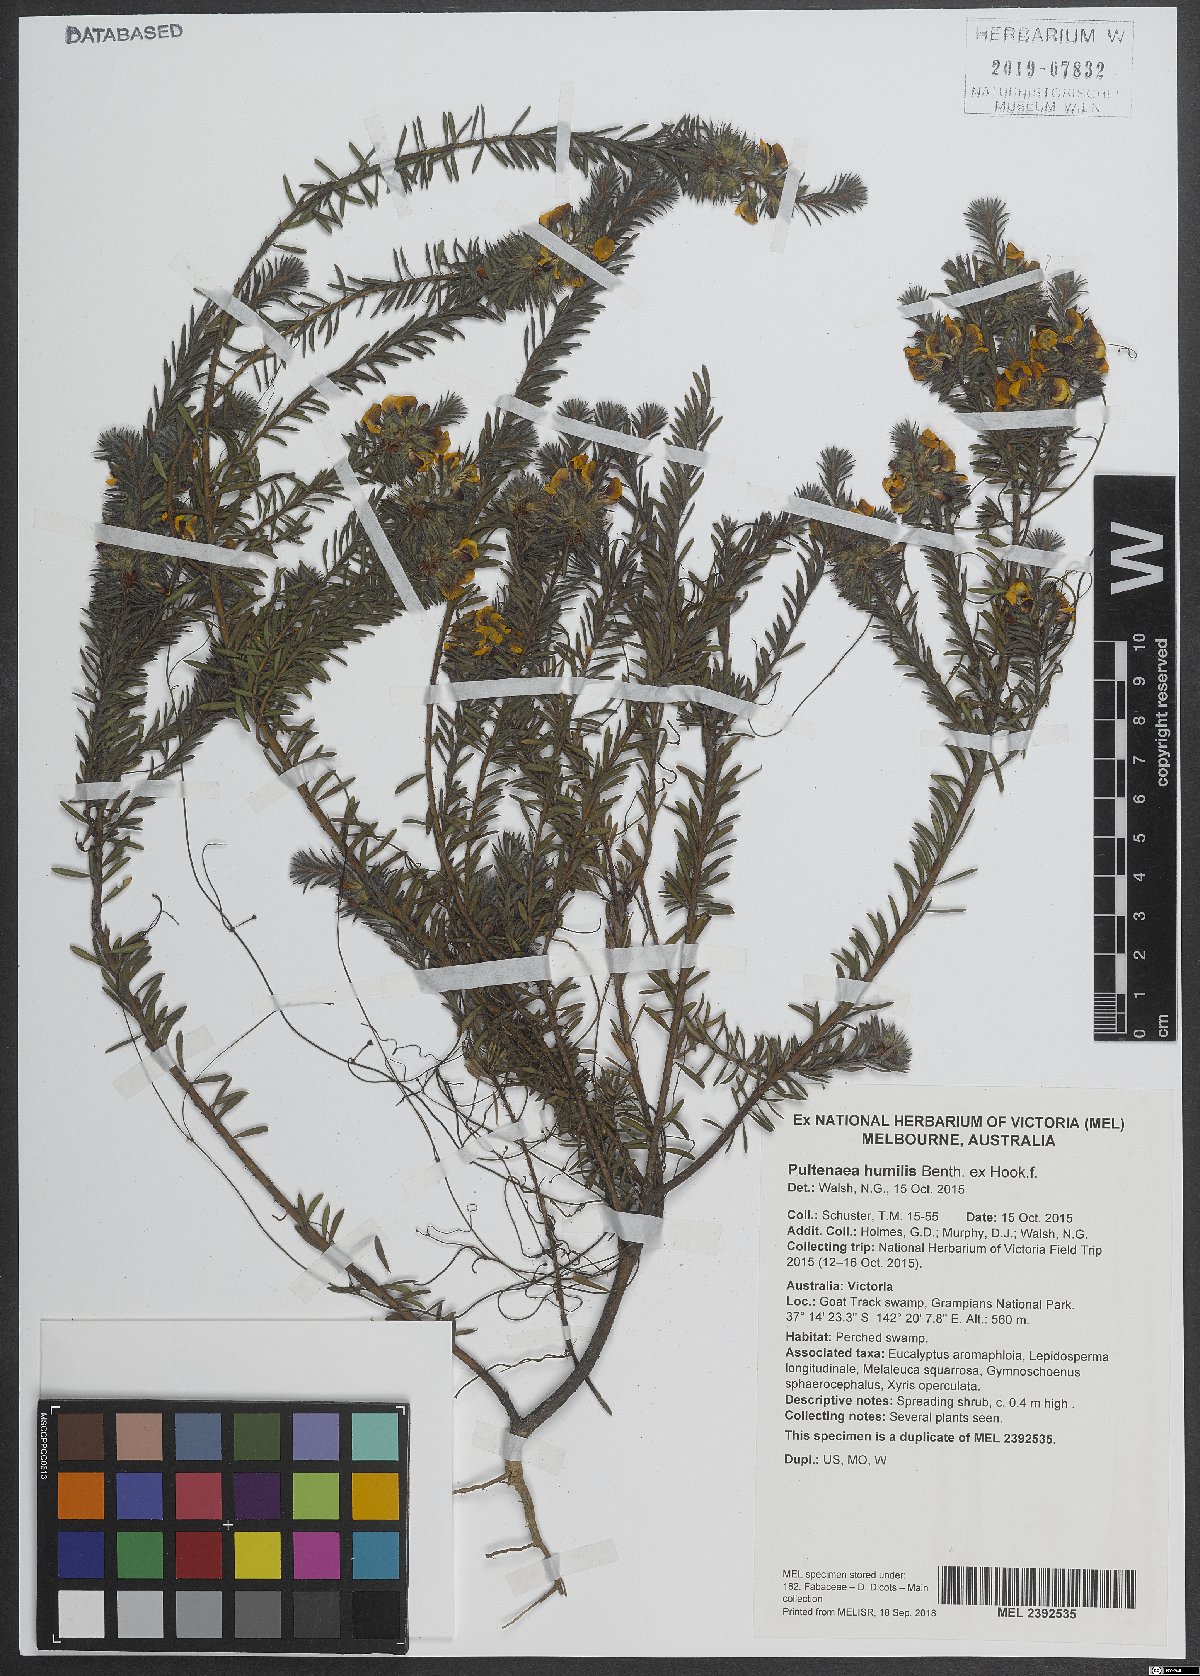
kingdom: Plantae
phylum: Tracheophyta
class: Magnoliopsida
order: Fabales
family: Fabaceae
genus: Pultenaea
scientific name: Pultenaea humilis
